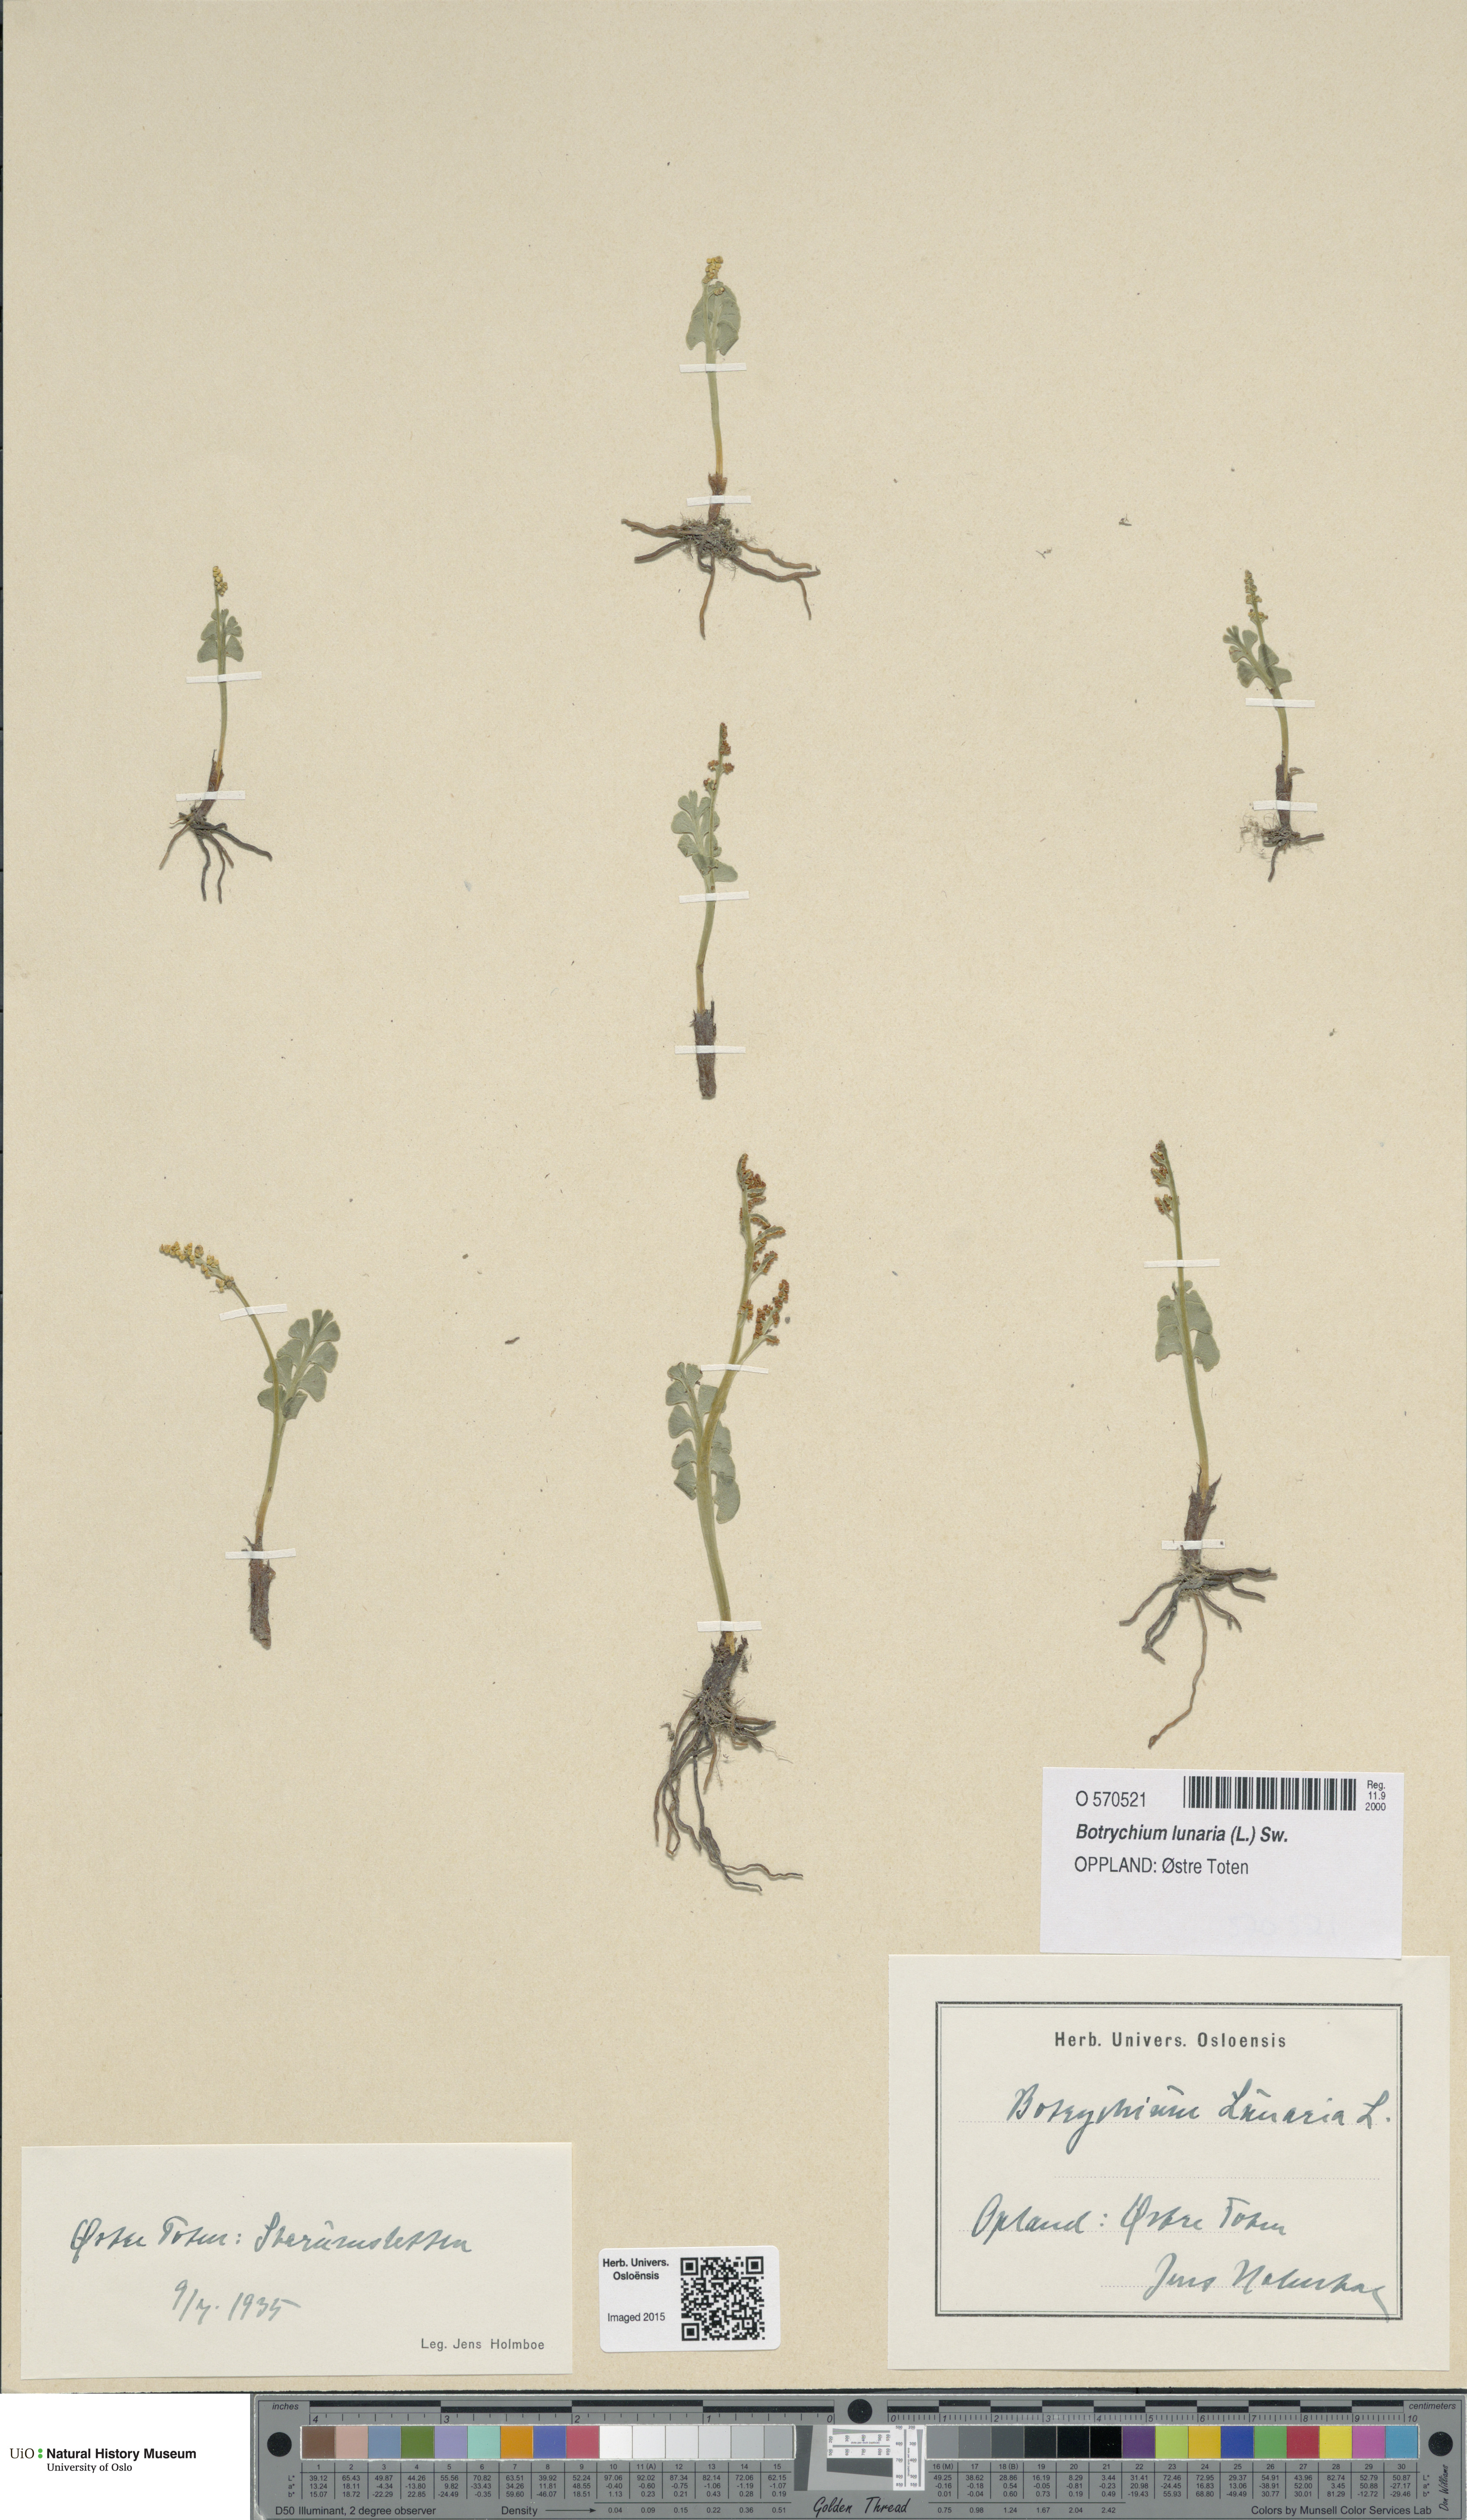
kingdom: Plantae
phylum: Tracheophyta
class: Polypodiopsida
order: Ophioglossales
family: Ophioglossaceae
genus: Botrychium
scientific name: Botrychium lunaria
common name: Moonwort
